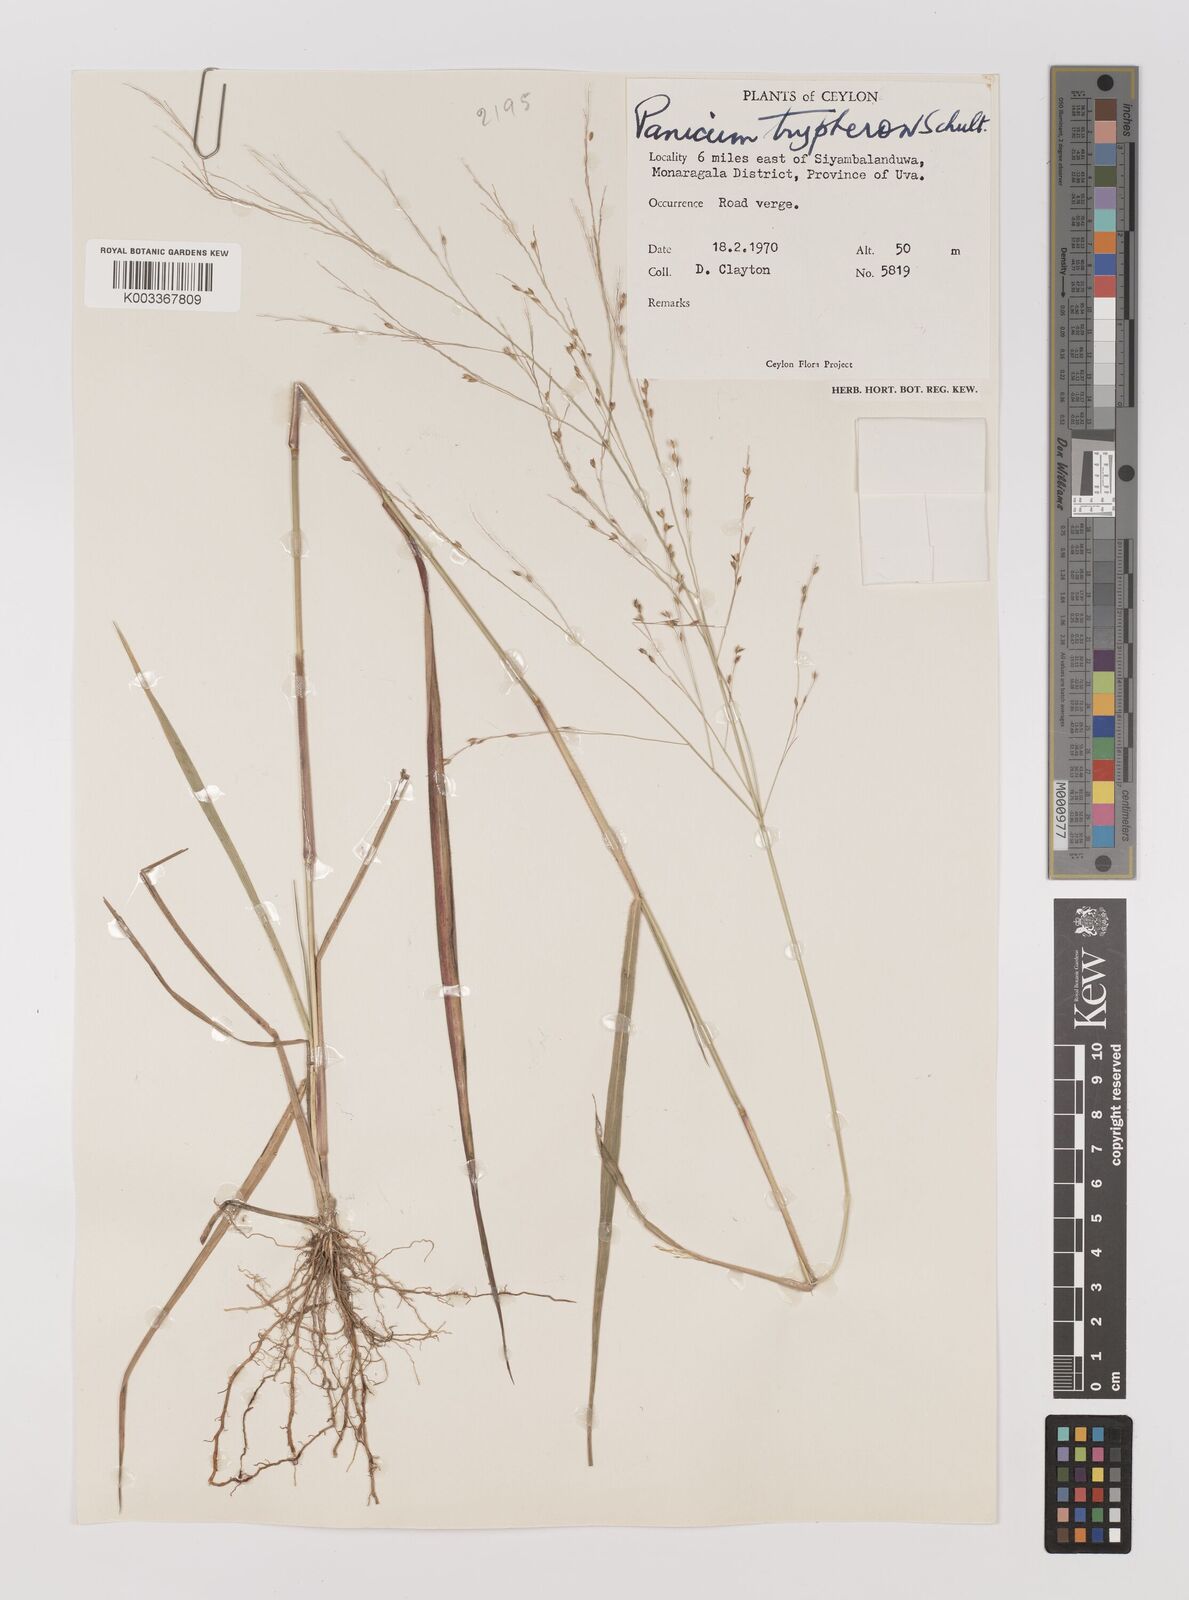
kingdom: Plantae
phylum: Tracheophyta
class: Liliopsida
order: Poales
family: Poaceae
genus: Panicum
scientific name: Panicum curviflorum
